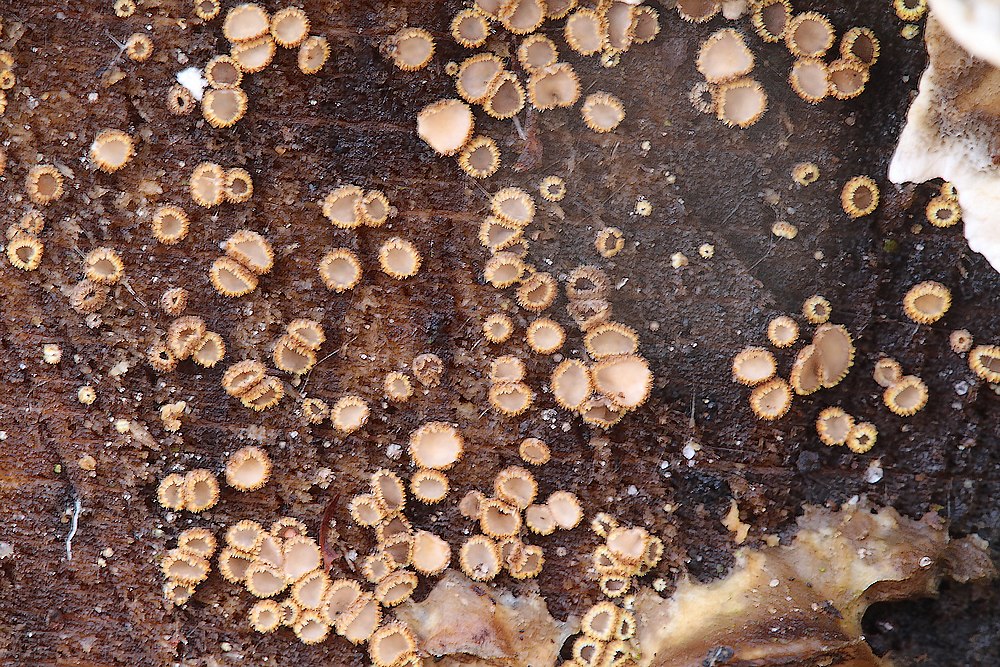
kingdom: Fungi
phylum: Ascomycota
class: Leotiomycetes
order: Helotiales
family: Lachnaceae
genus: Trichopeziza
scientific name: Trichopeziza subsulphurea
